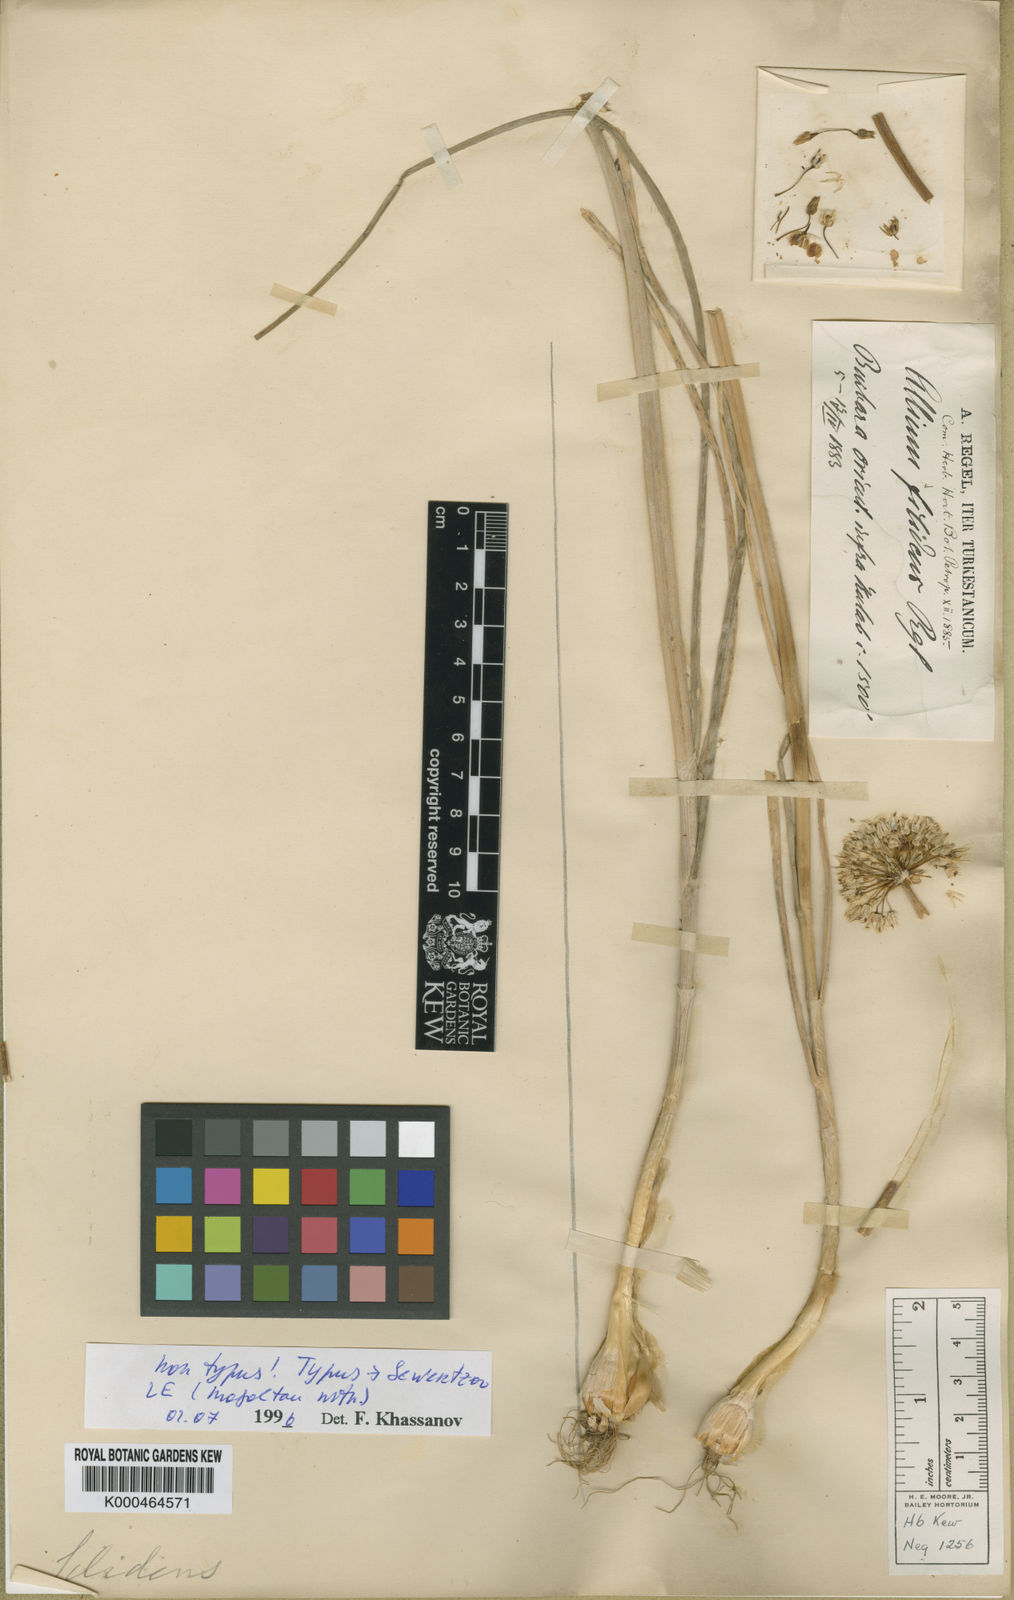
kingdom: Plantae
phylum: Tracheophyta
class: Liliopsida
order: Asparagales
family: Amaryllidaceae
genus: Allium
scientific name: Allium filidens
